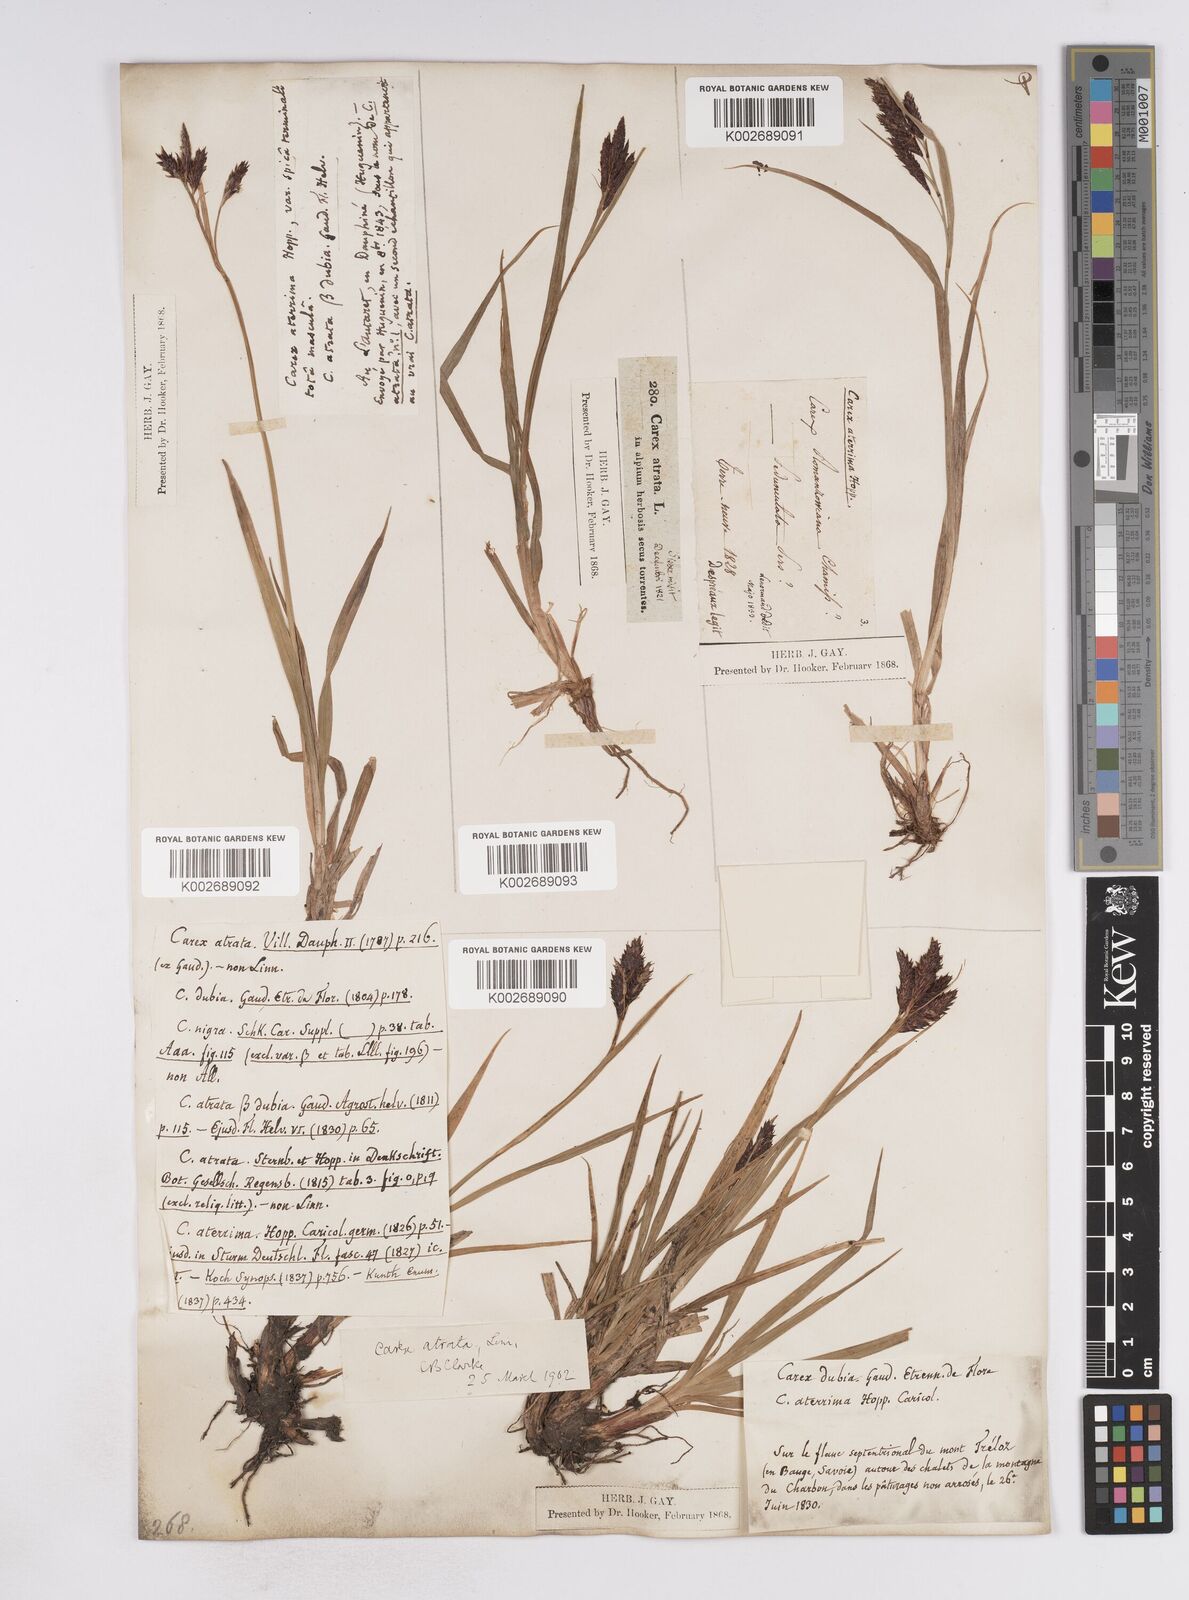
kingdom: Plantae
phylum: Tracheophyta
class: Liliopsida
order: Poales
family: Cyperaceae
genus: Carex
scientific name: Carex atrata
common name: Black alpine sedge
